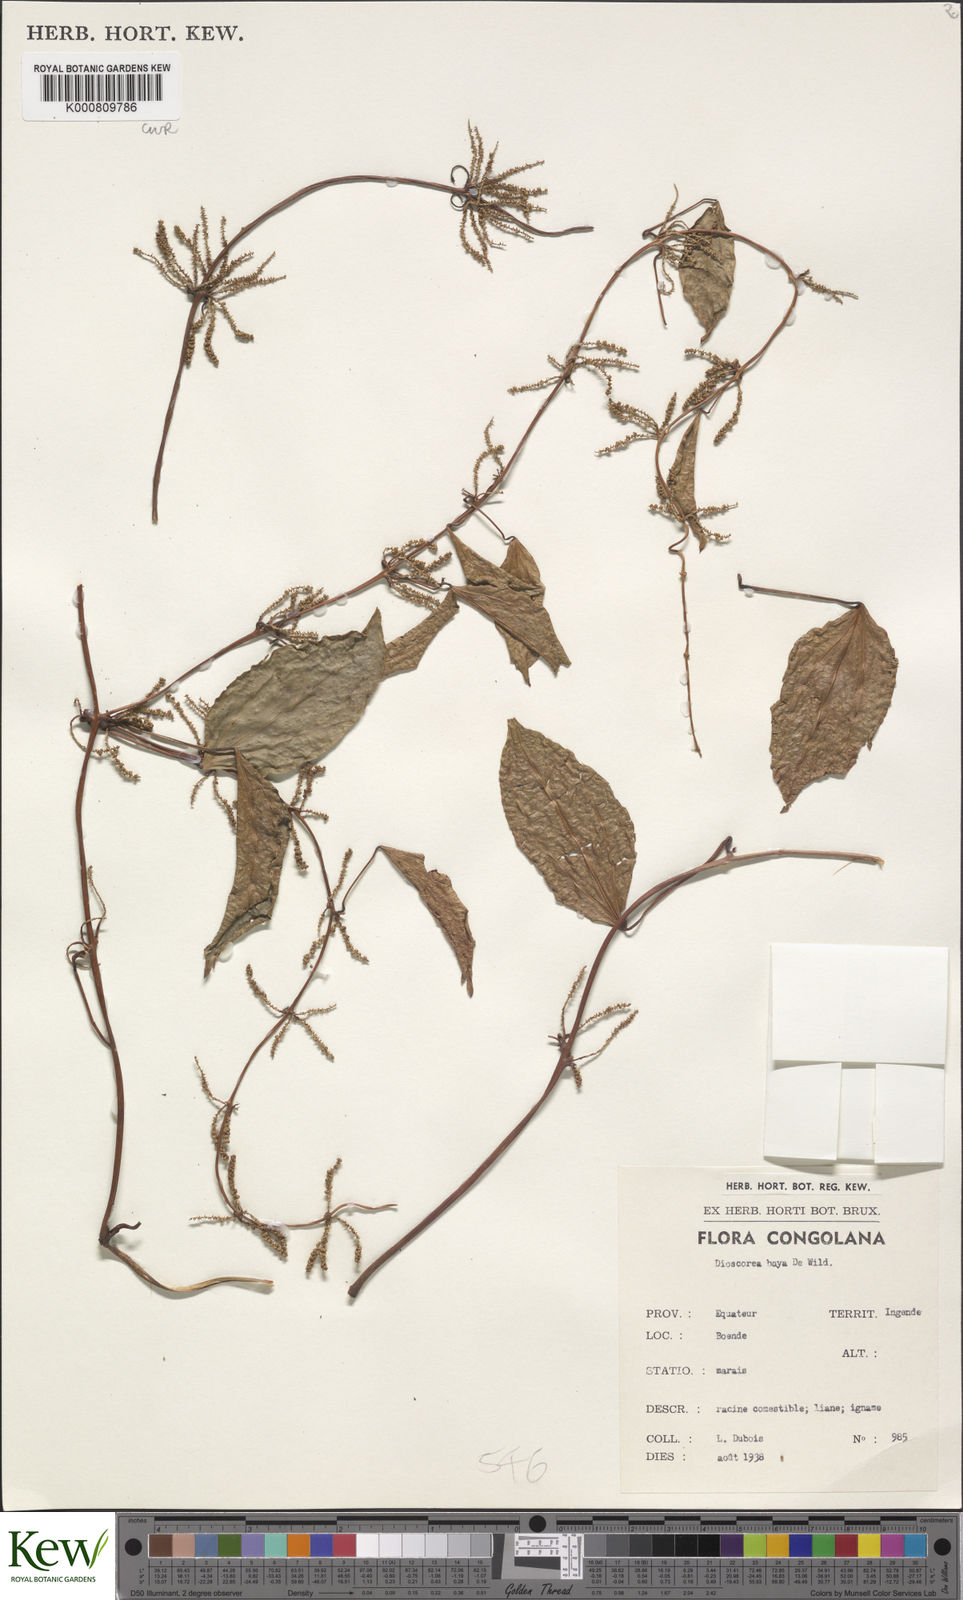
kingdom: Plantae
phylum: Tracheophyta
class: Liliopsida
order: Dioscoreales
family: Dioscoreaceae
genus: Dioscorea
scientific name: Dioscorea baya
